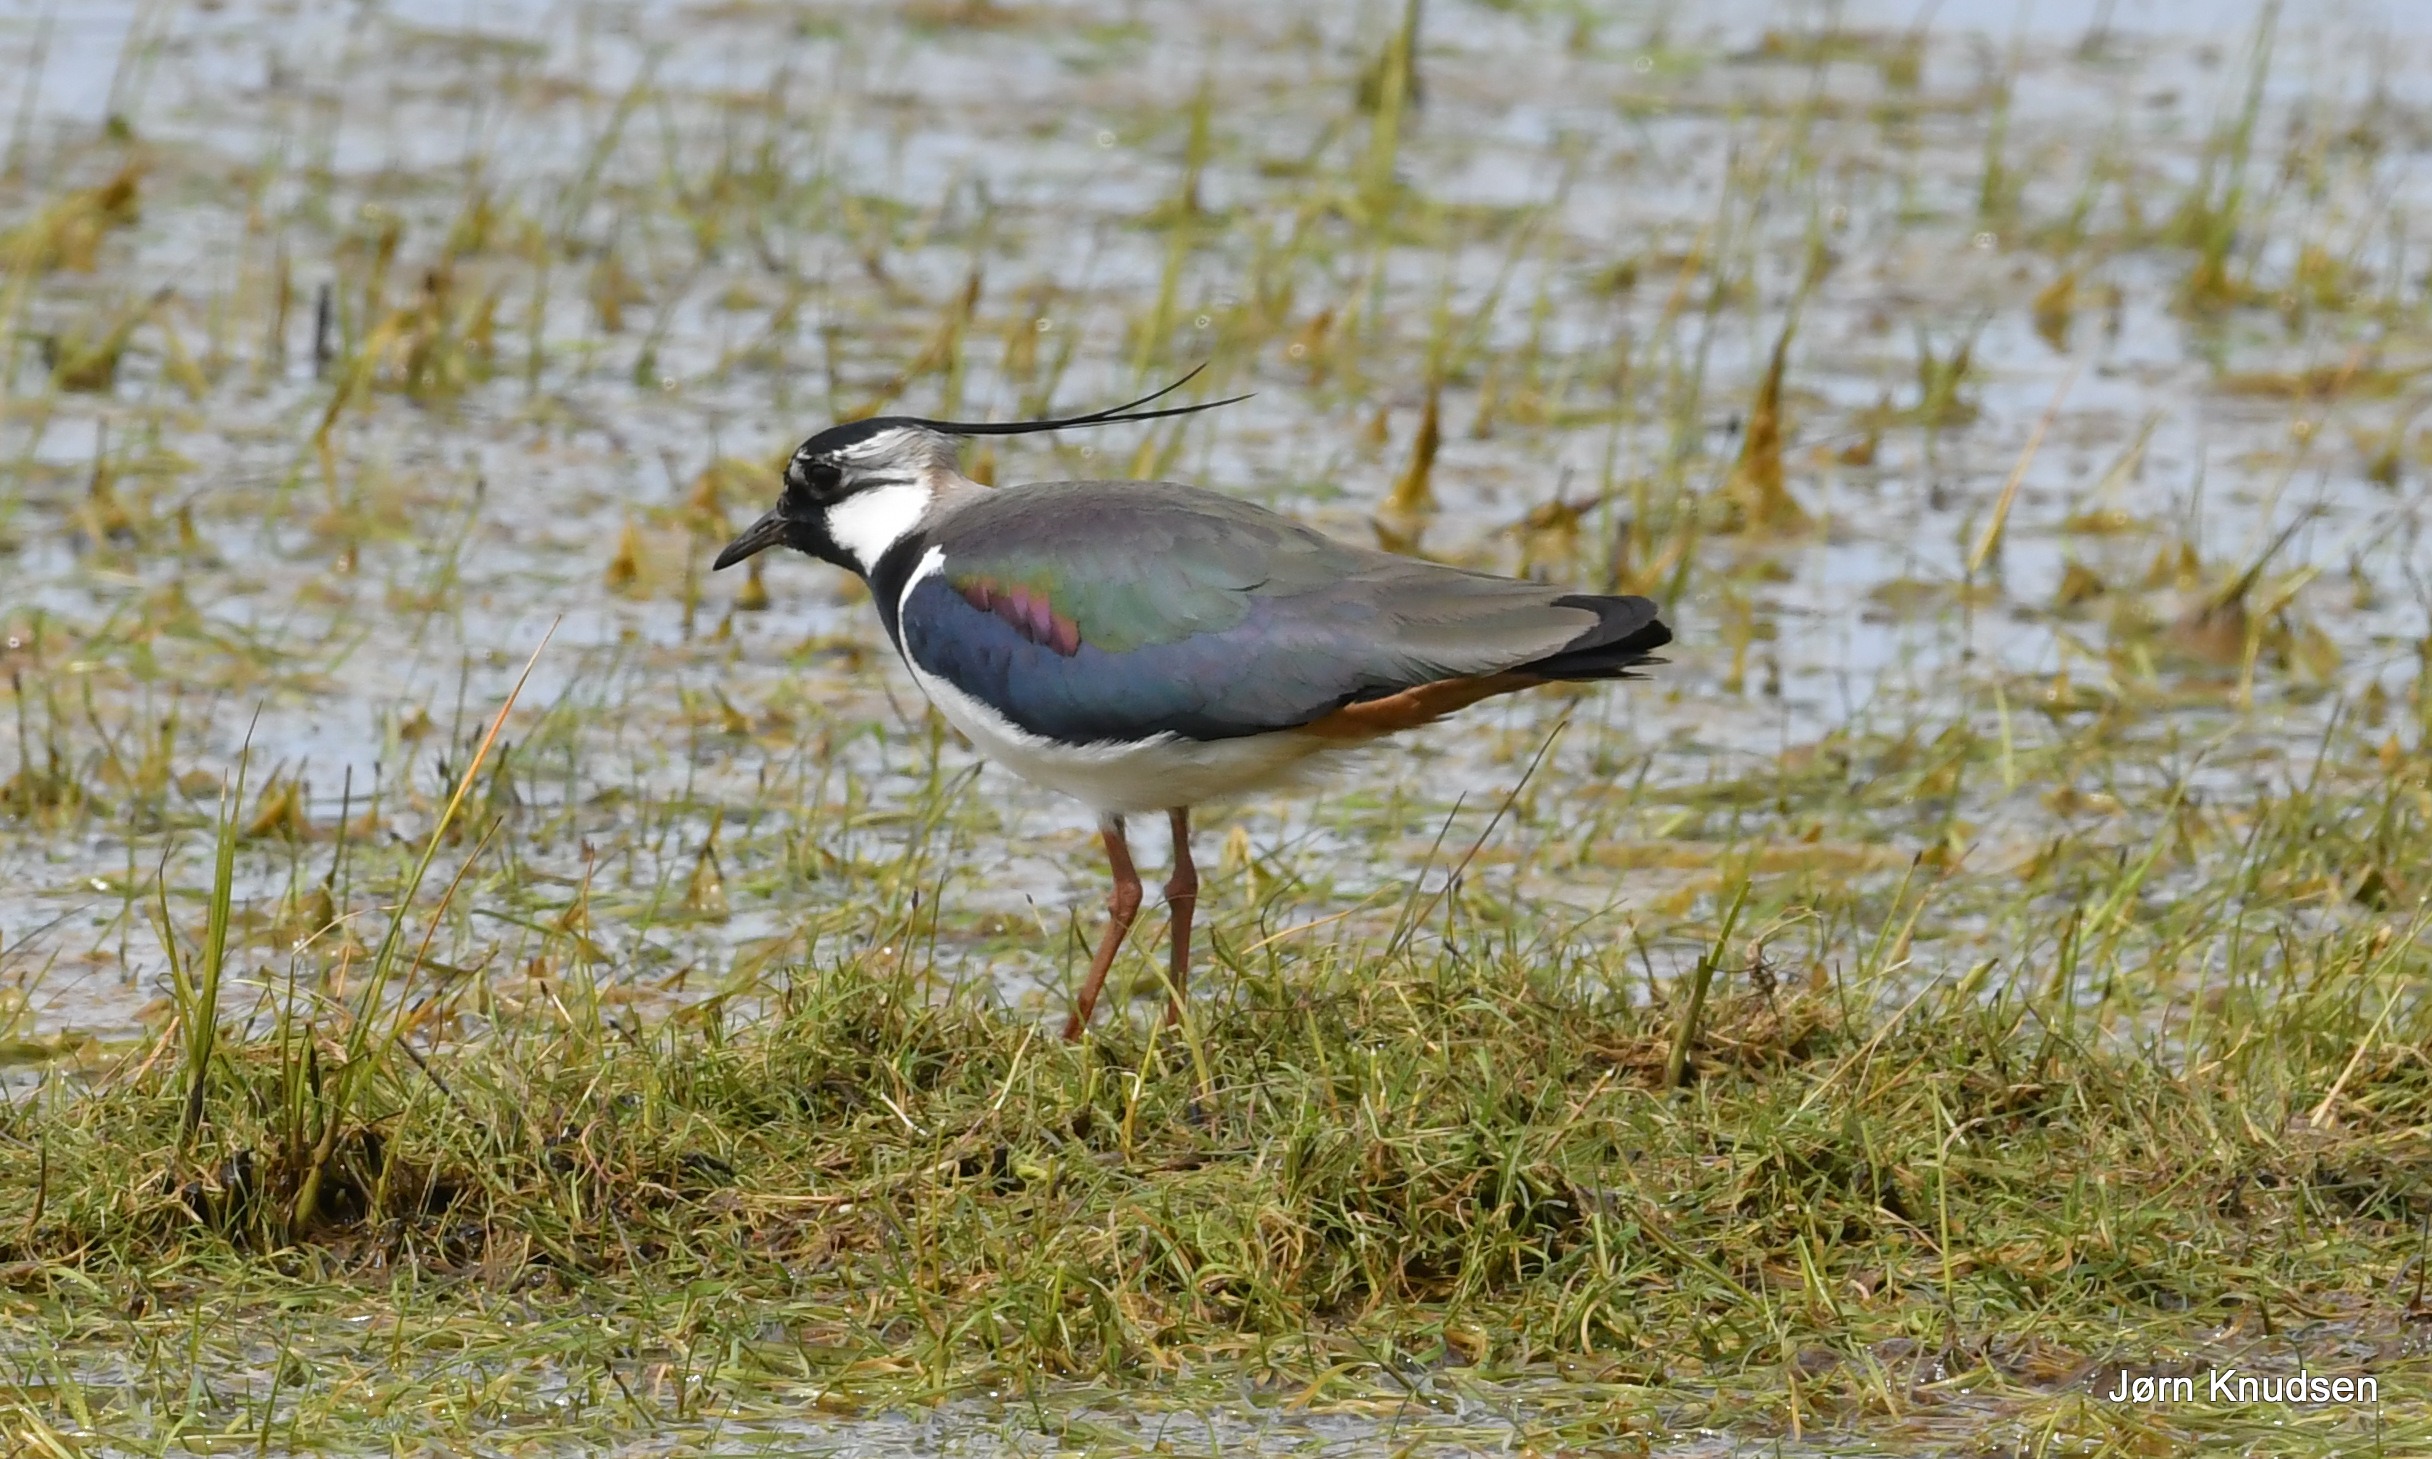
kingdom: Animalia
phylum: Chordata
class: Aves
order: Charadriiformes
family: Charadriidae
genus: Vanellus
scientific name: Vanellus vanellus
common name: Vibe
